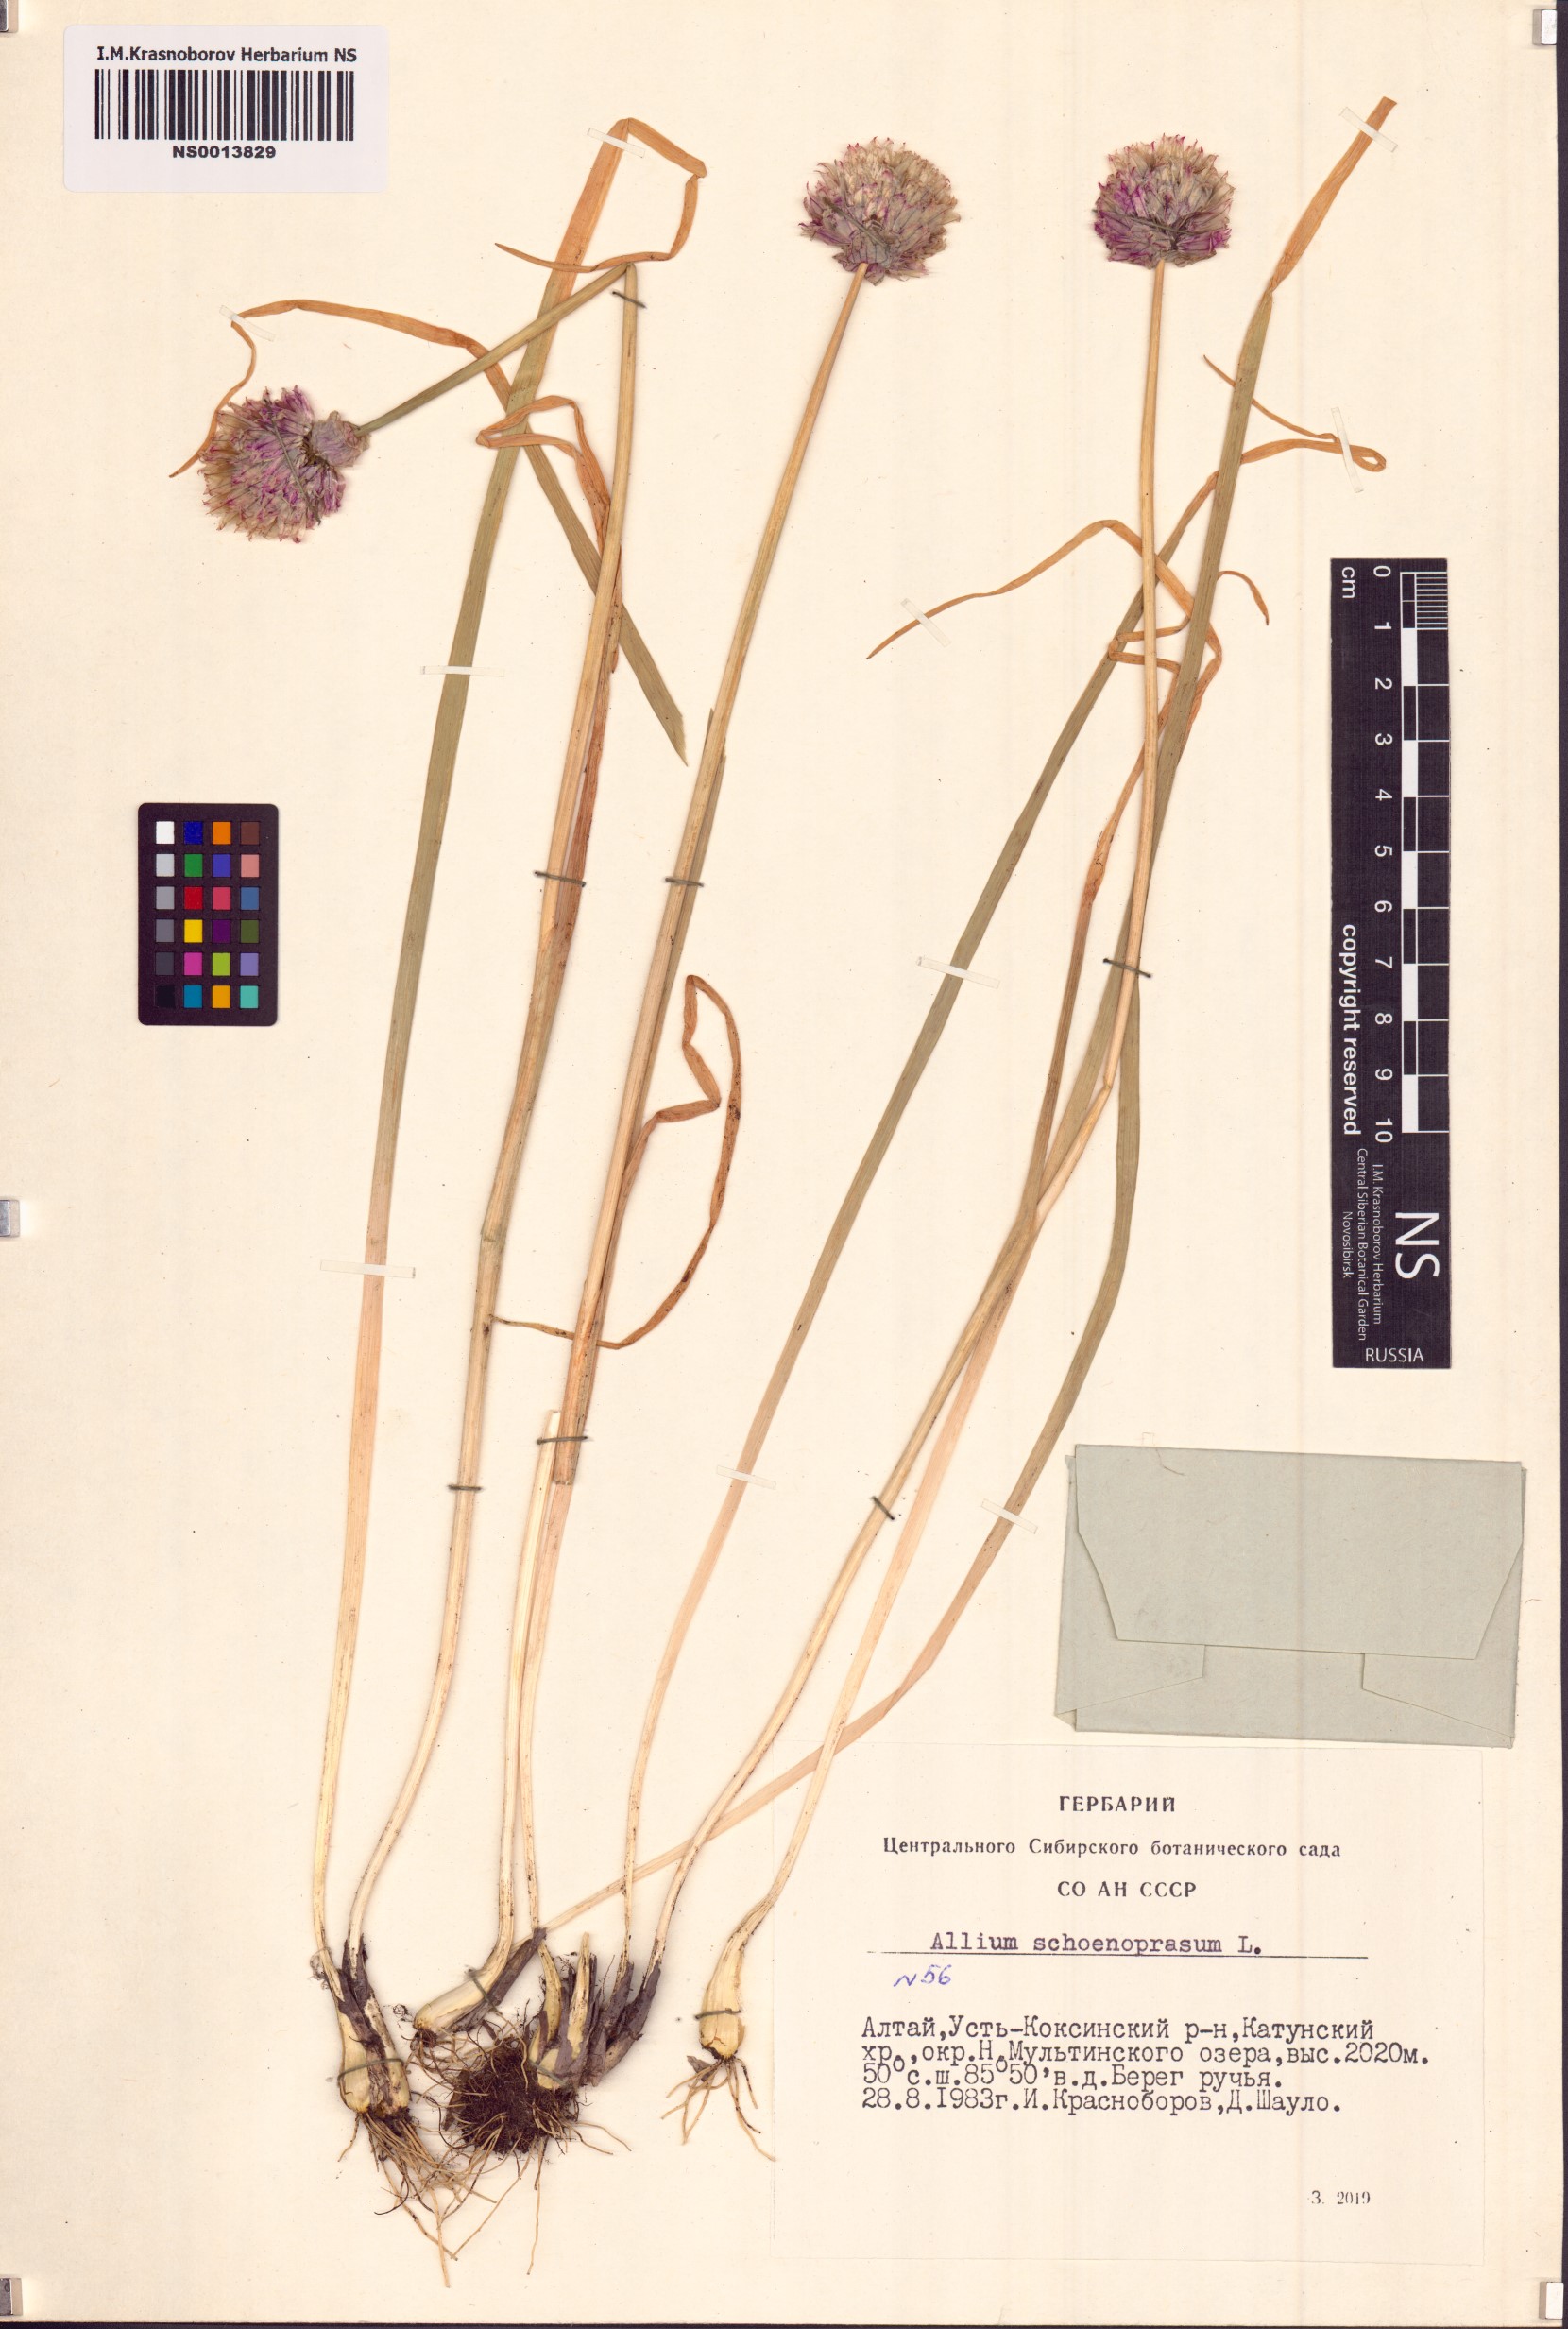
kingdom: Plantae
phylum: Tracheophyta
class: Liliopsida
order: Asparagales
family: Amaryllidaceae
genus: Allium
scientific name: Allium schoenoprasum
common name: Chives
